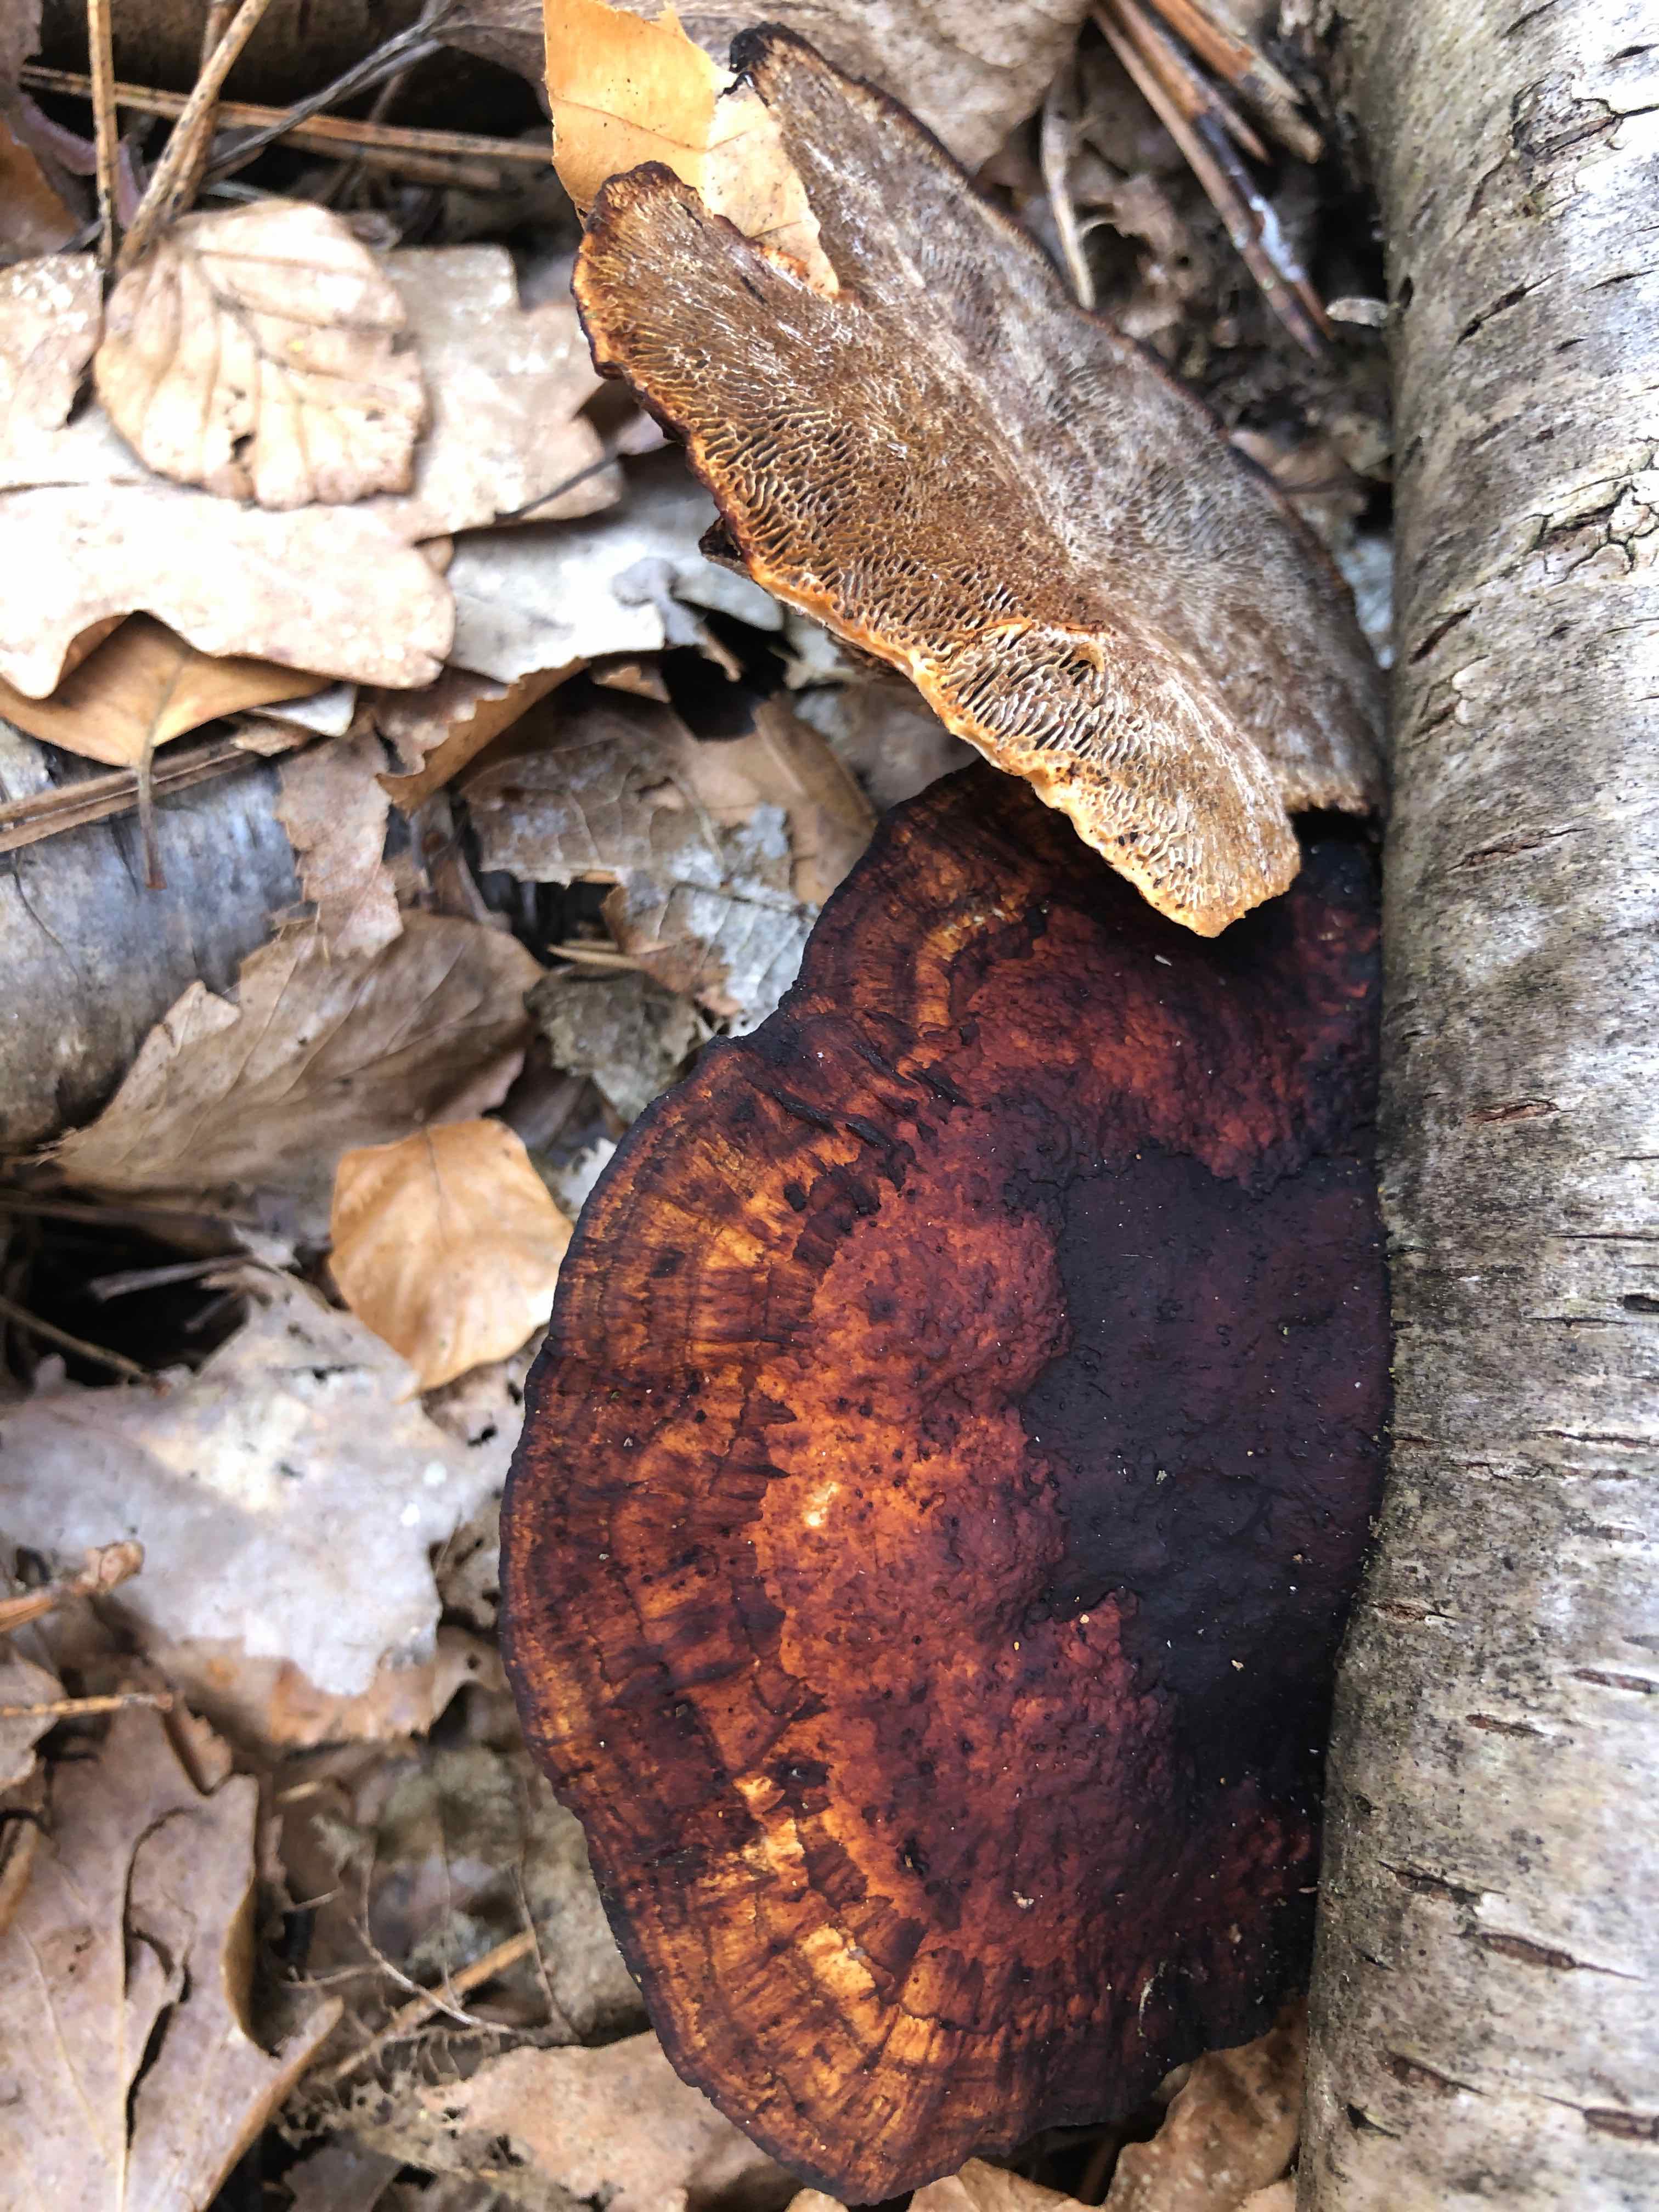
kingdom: Fungi
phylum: Basidiomycota
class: Agaricomycetes
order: Polyporales
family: Polyporaceae
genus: Daedaleopsis
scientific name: Daedaleopsis confragosa
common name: rødmende læderporesvamp
